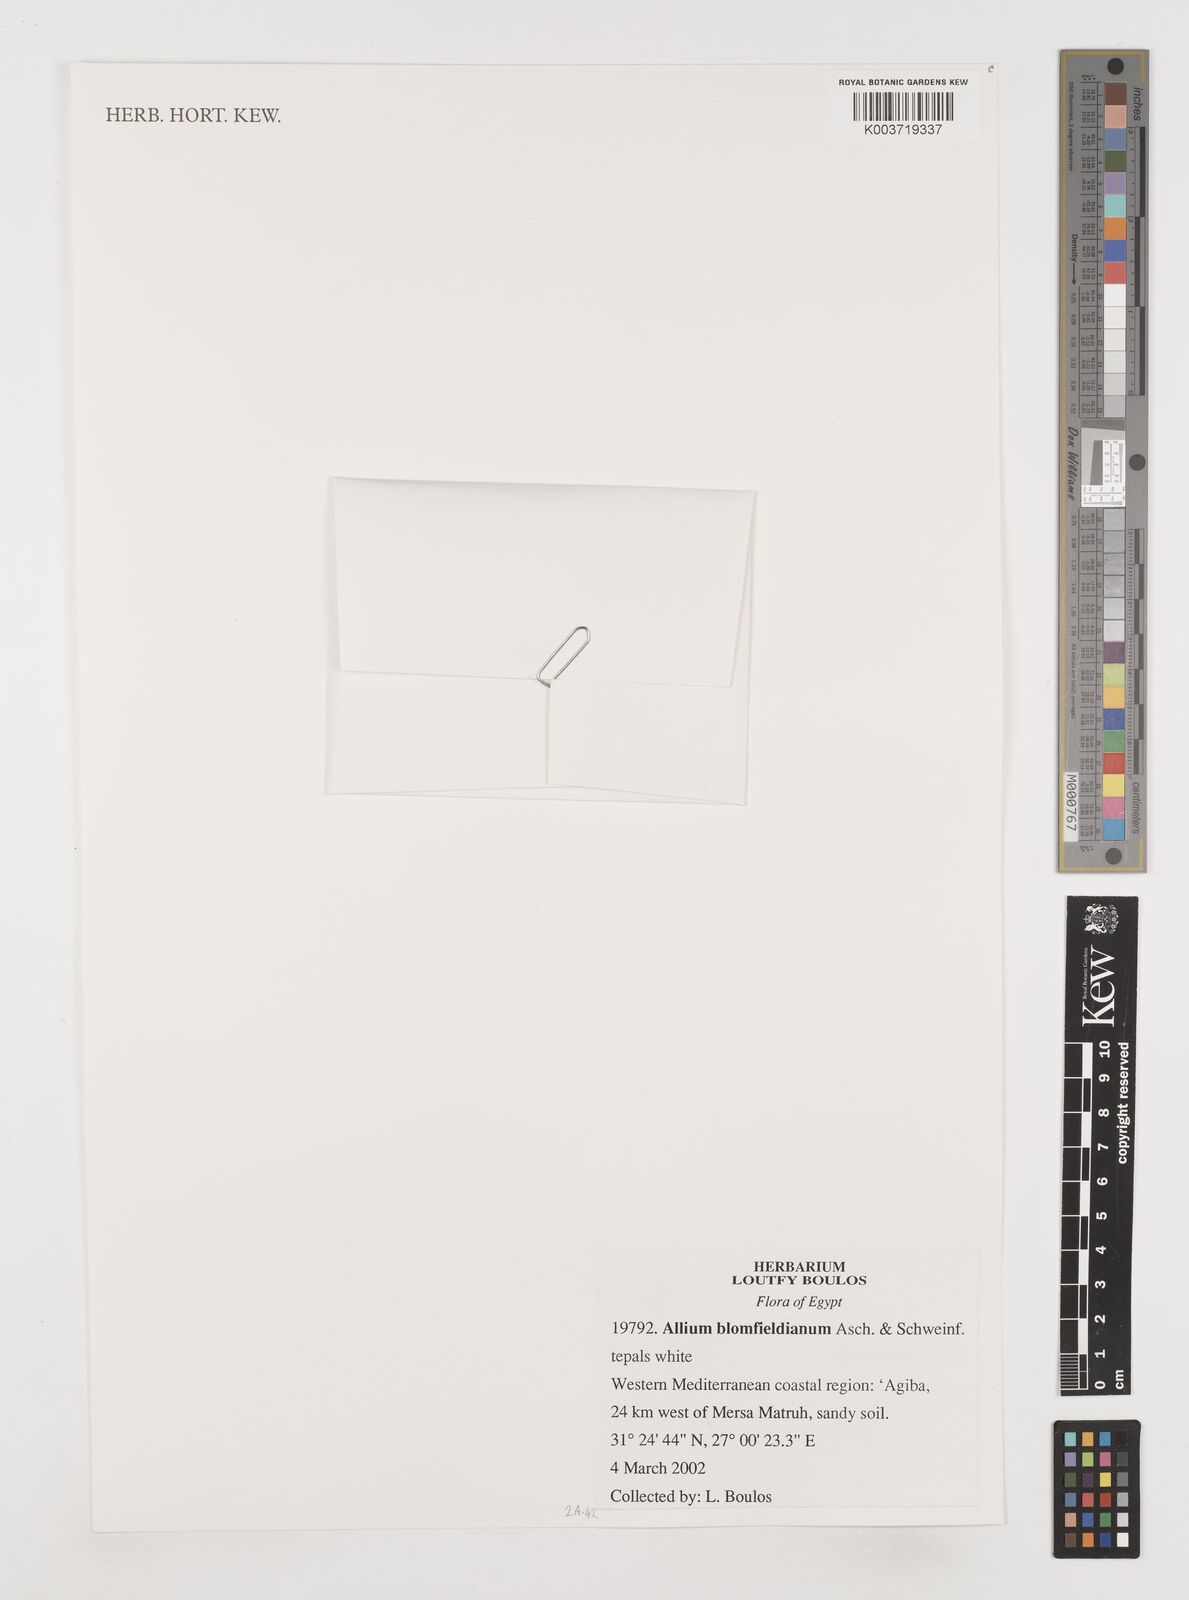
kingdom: Plantae
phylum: Tracheophyta
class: Liliopsida
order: Asparagales
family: Amaryllidaceae
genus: Allium
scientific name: Allium blomfieldianum
